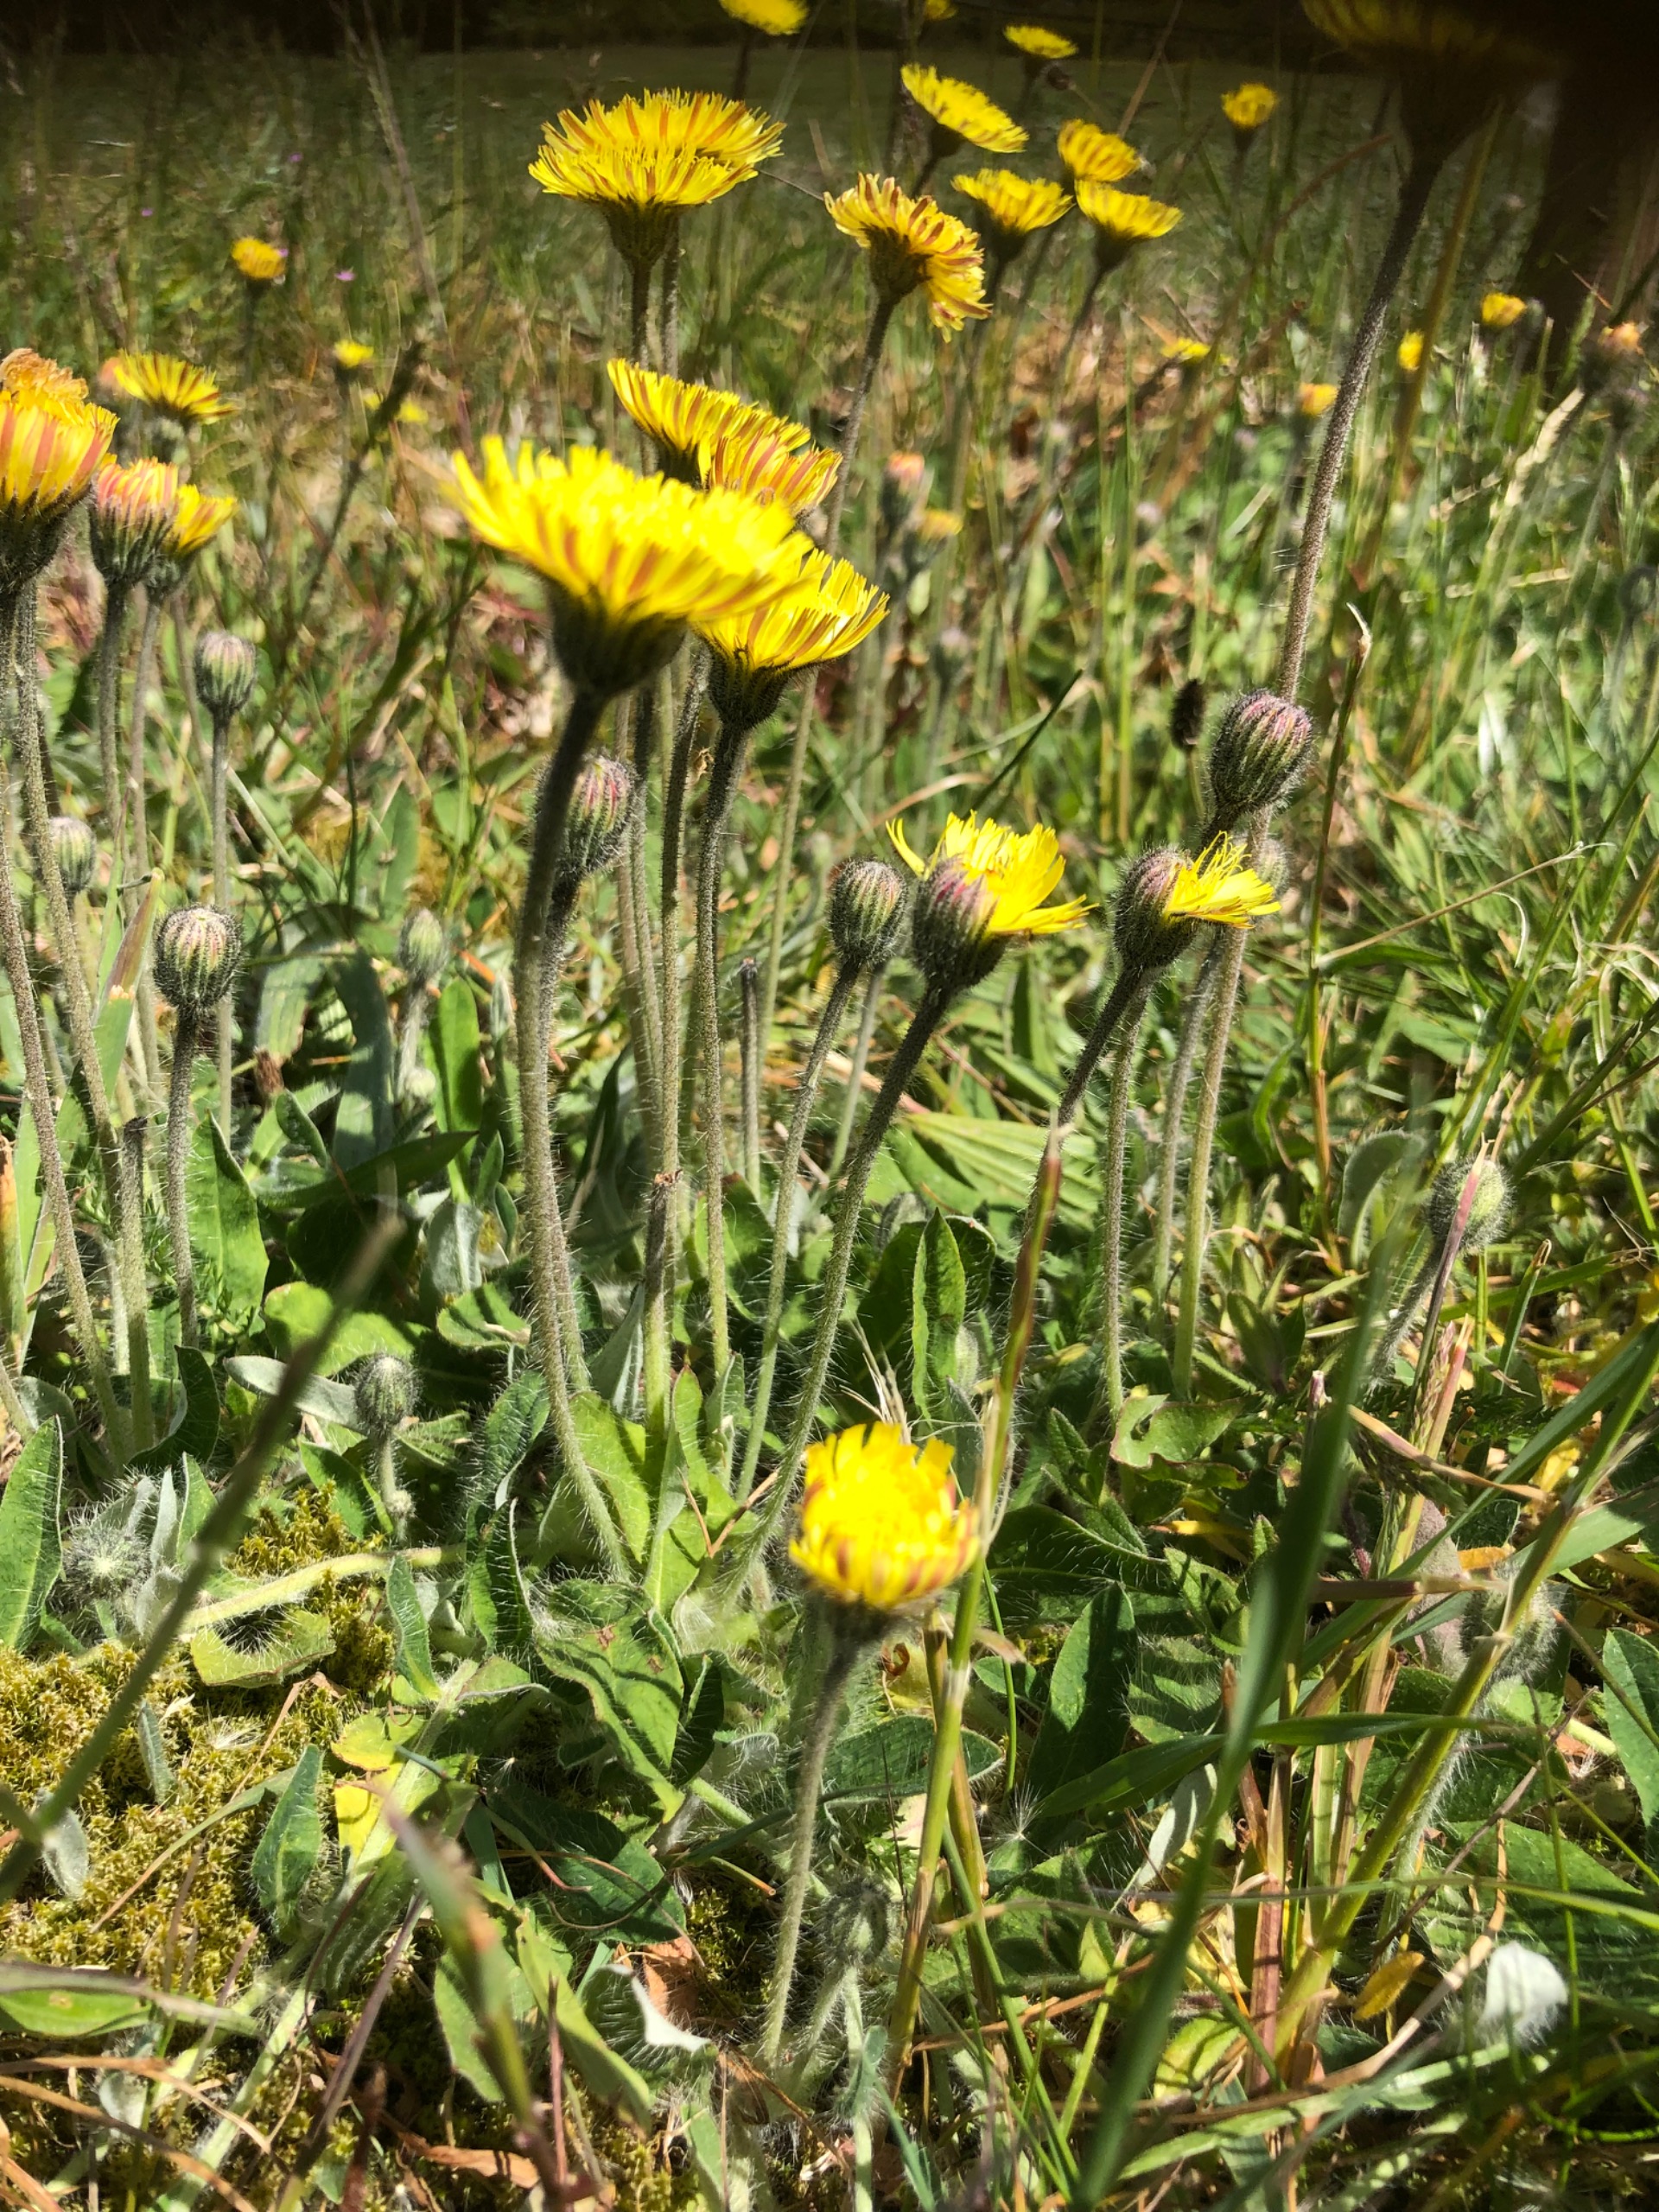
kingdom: Plantae
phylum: Tracheophyta
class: Magnoliopsida
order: Asterales
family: Asteraceae
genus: Pilosella
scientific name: Pilosella officinarum
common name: Håret høgeurt
